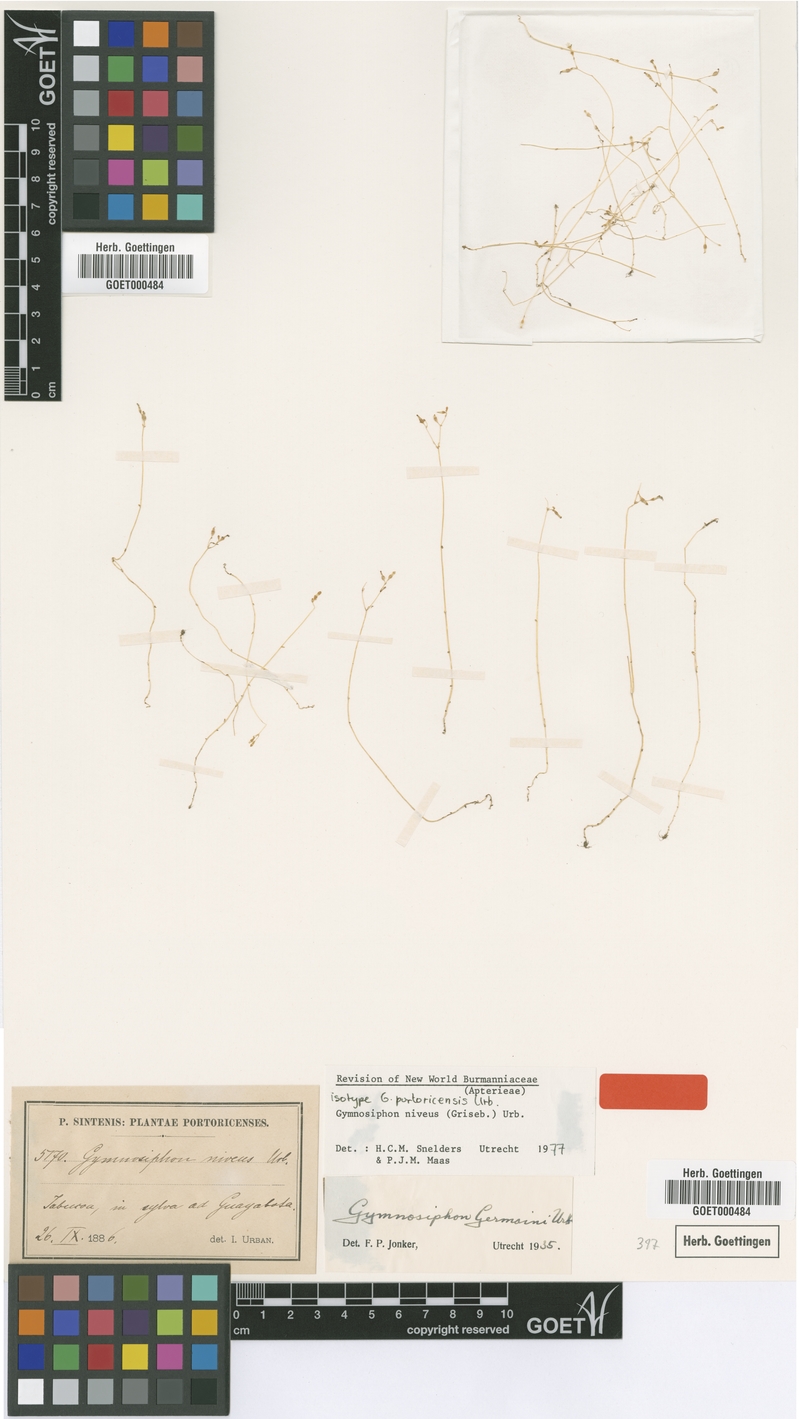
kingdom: Plantae
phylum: Tracheophyta
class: Liliopsida
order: Dioscoreales
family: Burmanniaceae
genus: Gymnosiphon
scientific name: Gymnosiphon niveus
